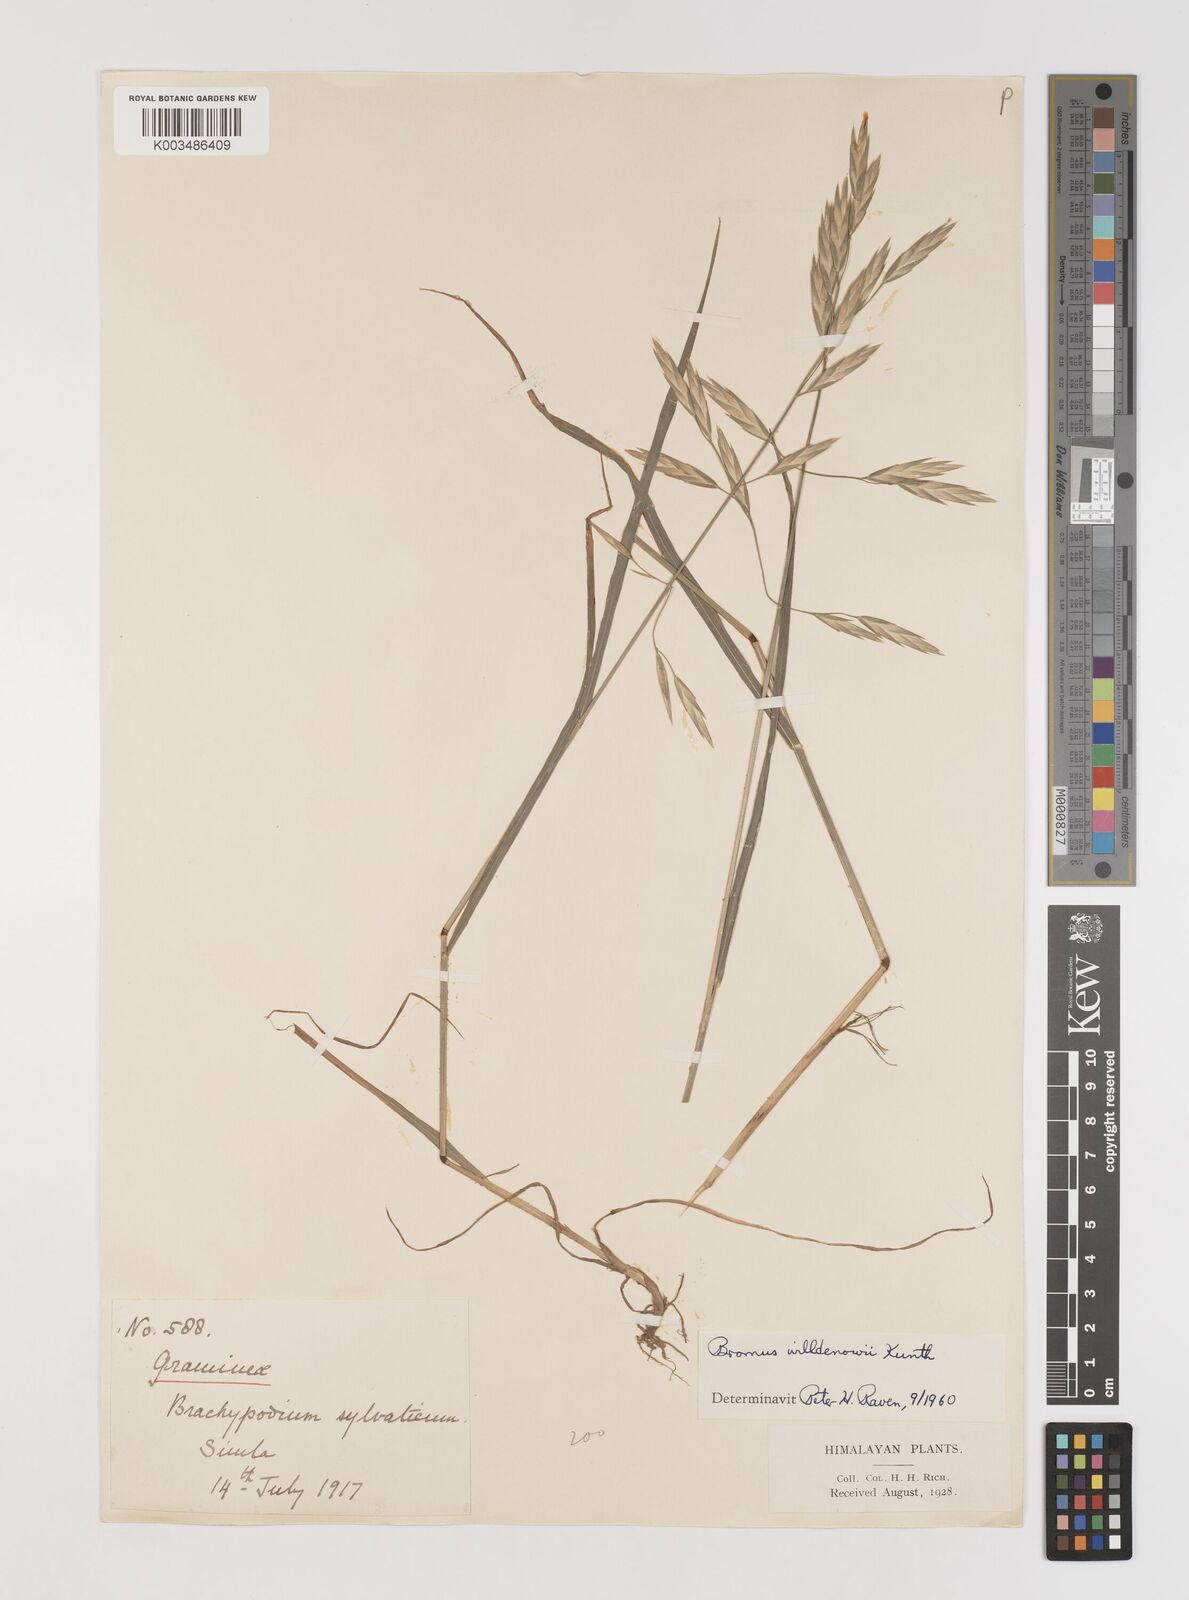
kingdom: Plantae
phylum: Tracheophyta
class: Liliopsida
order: Poales
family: Poaceae
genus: Bromus
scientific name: Bromus catharticus
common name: Rescuegrass
